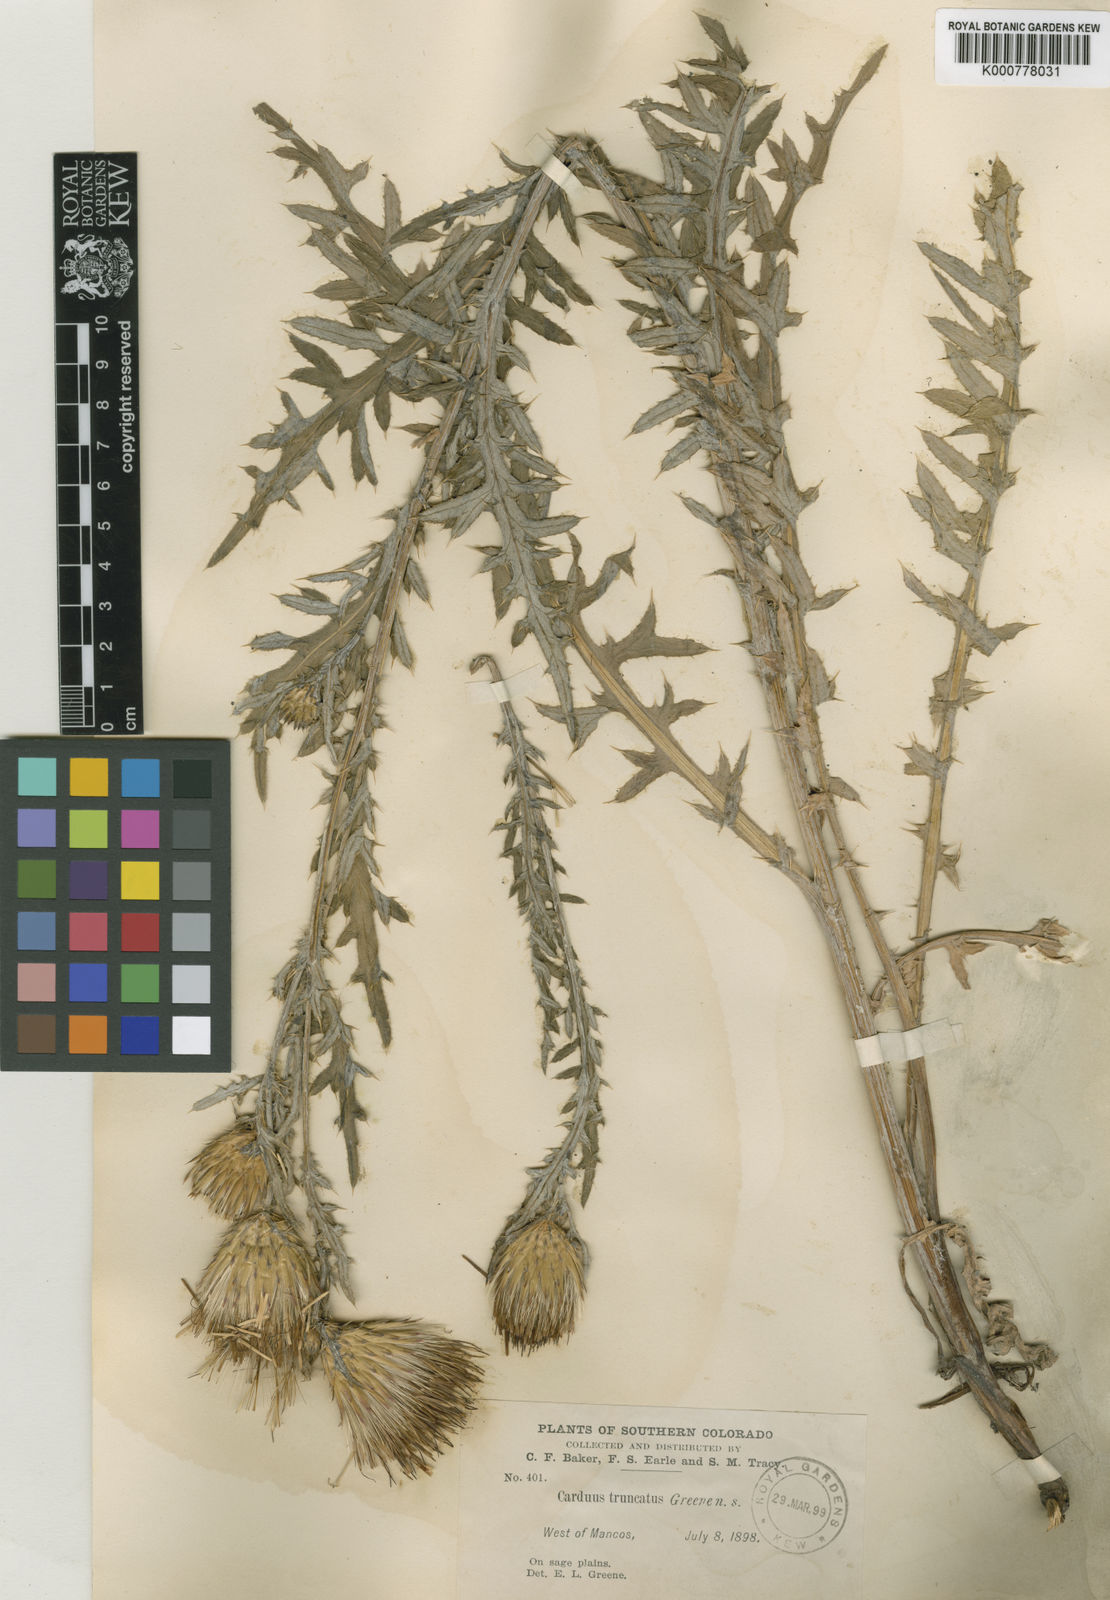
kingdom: Plantae
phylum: Tracheophyta
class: Magnoliopsida
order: Asterales
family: Asteraceae
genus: Carduus
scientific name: Carduus
